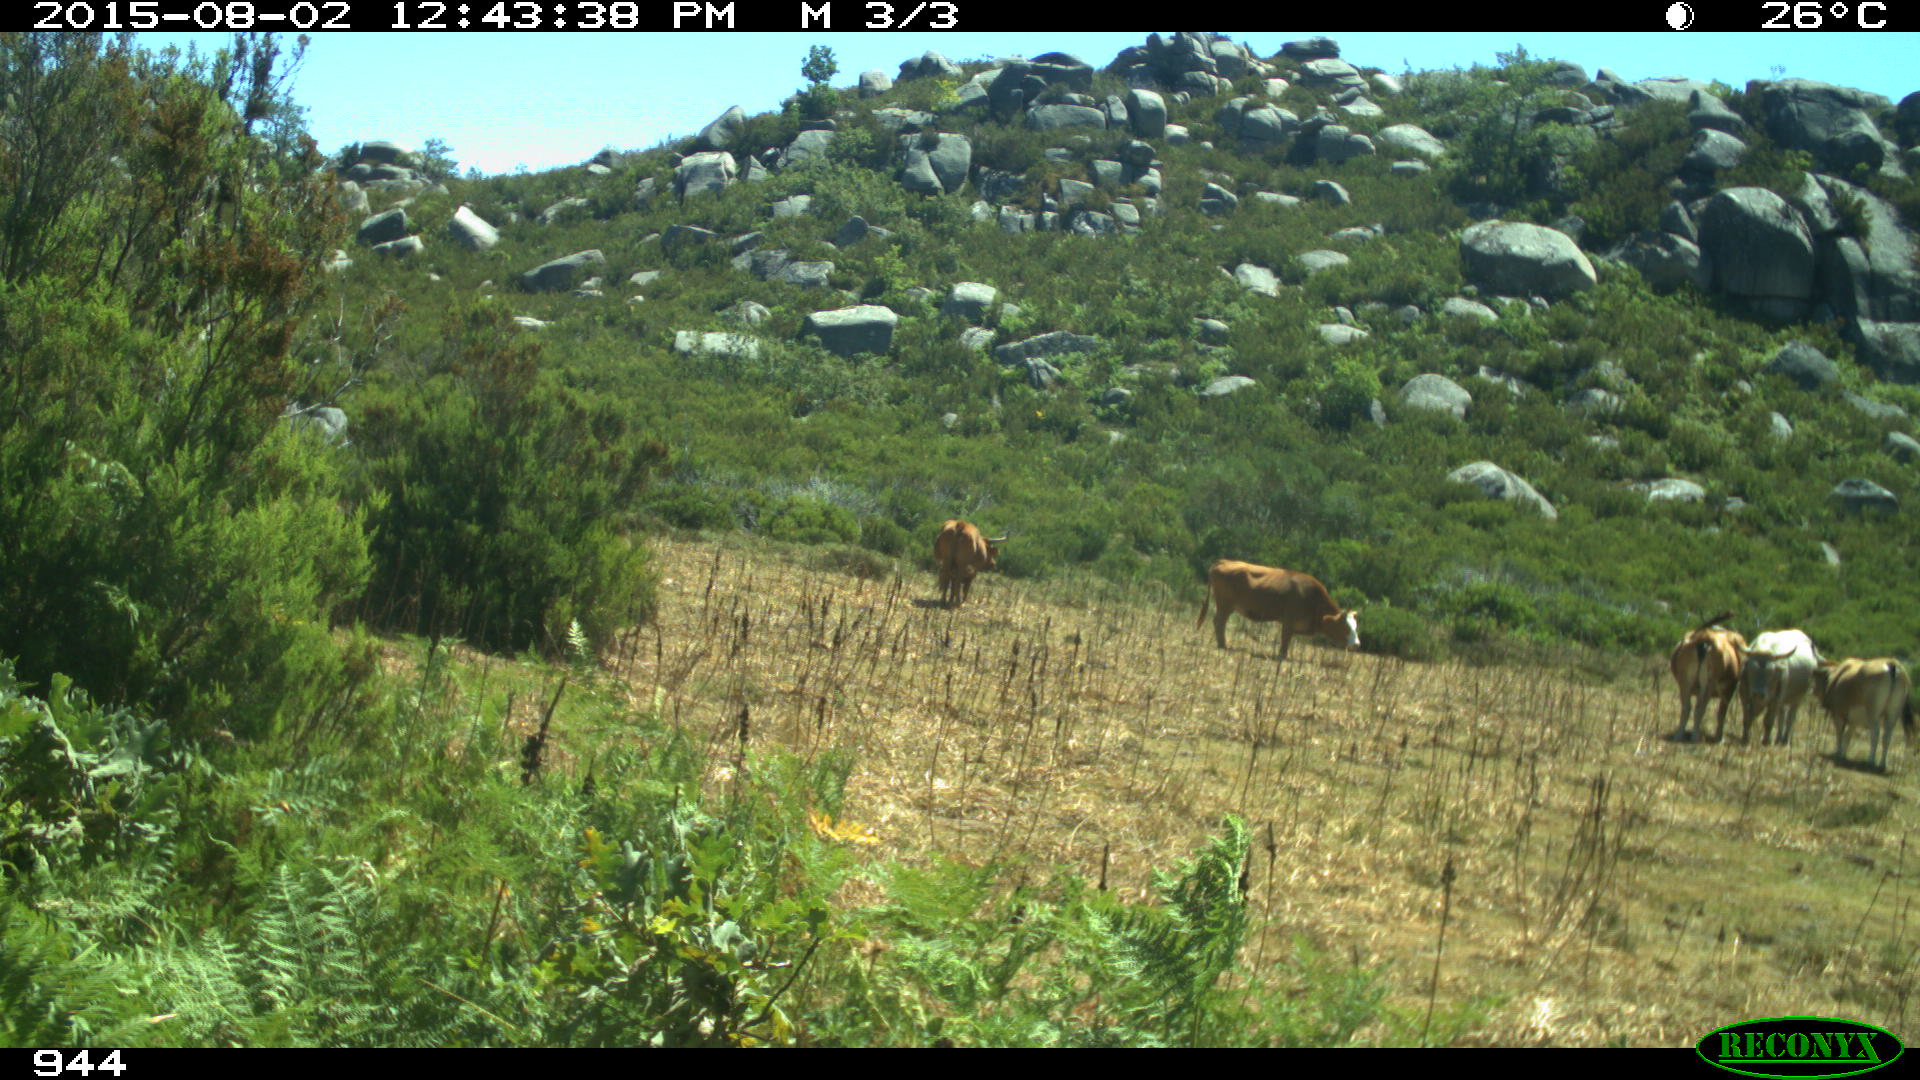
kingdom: Animalia
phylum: Chordata
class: Mammalia
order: Artiodactyla
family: Bovidae
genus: Bos
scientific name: Bos taurus
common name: Domesticated cattle
